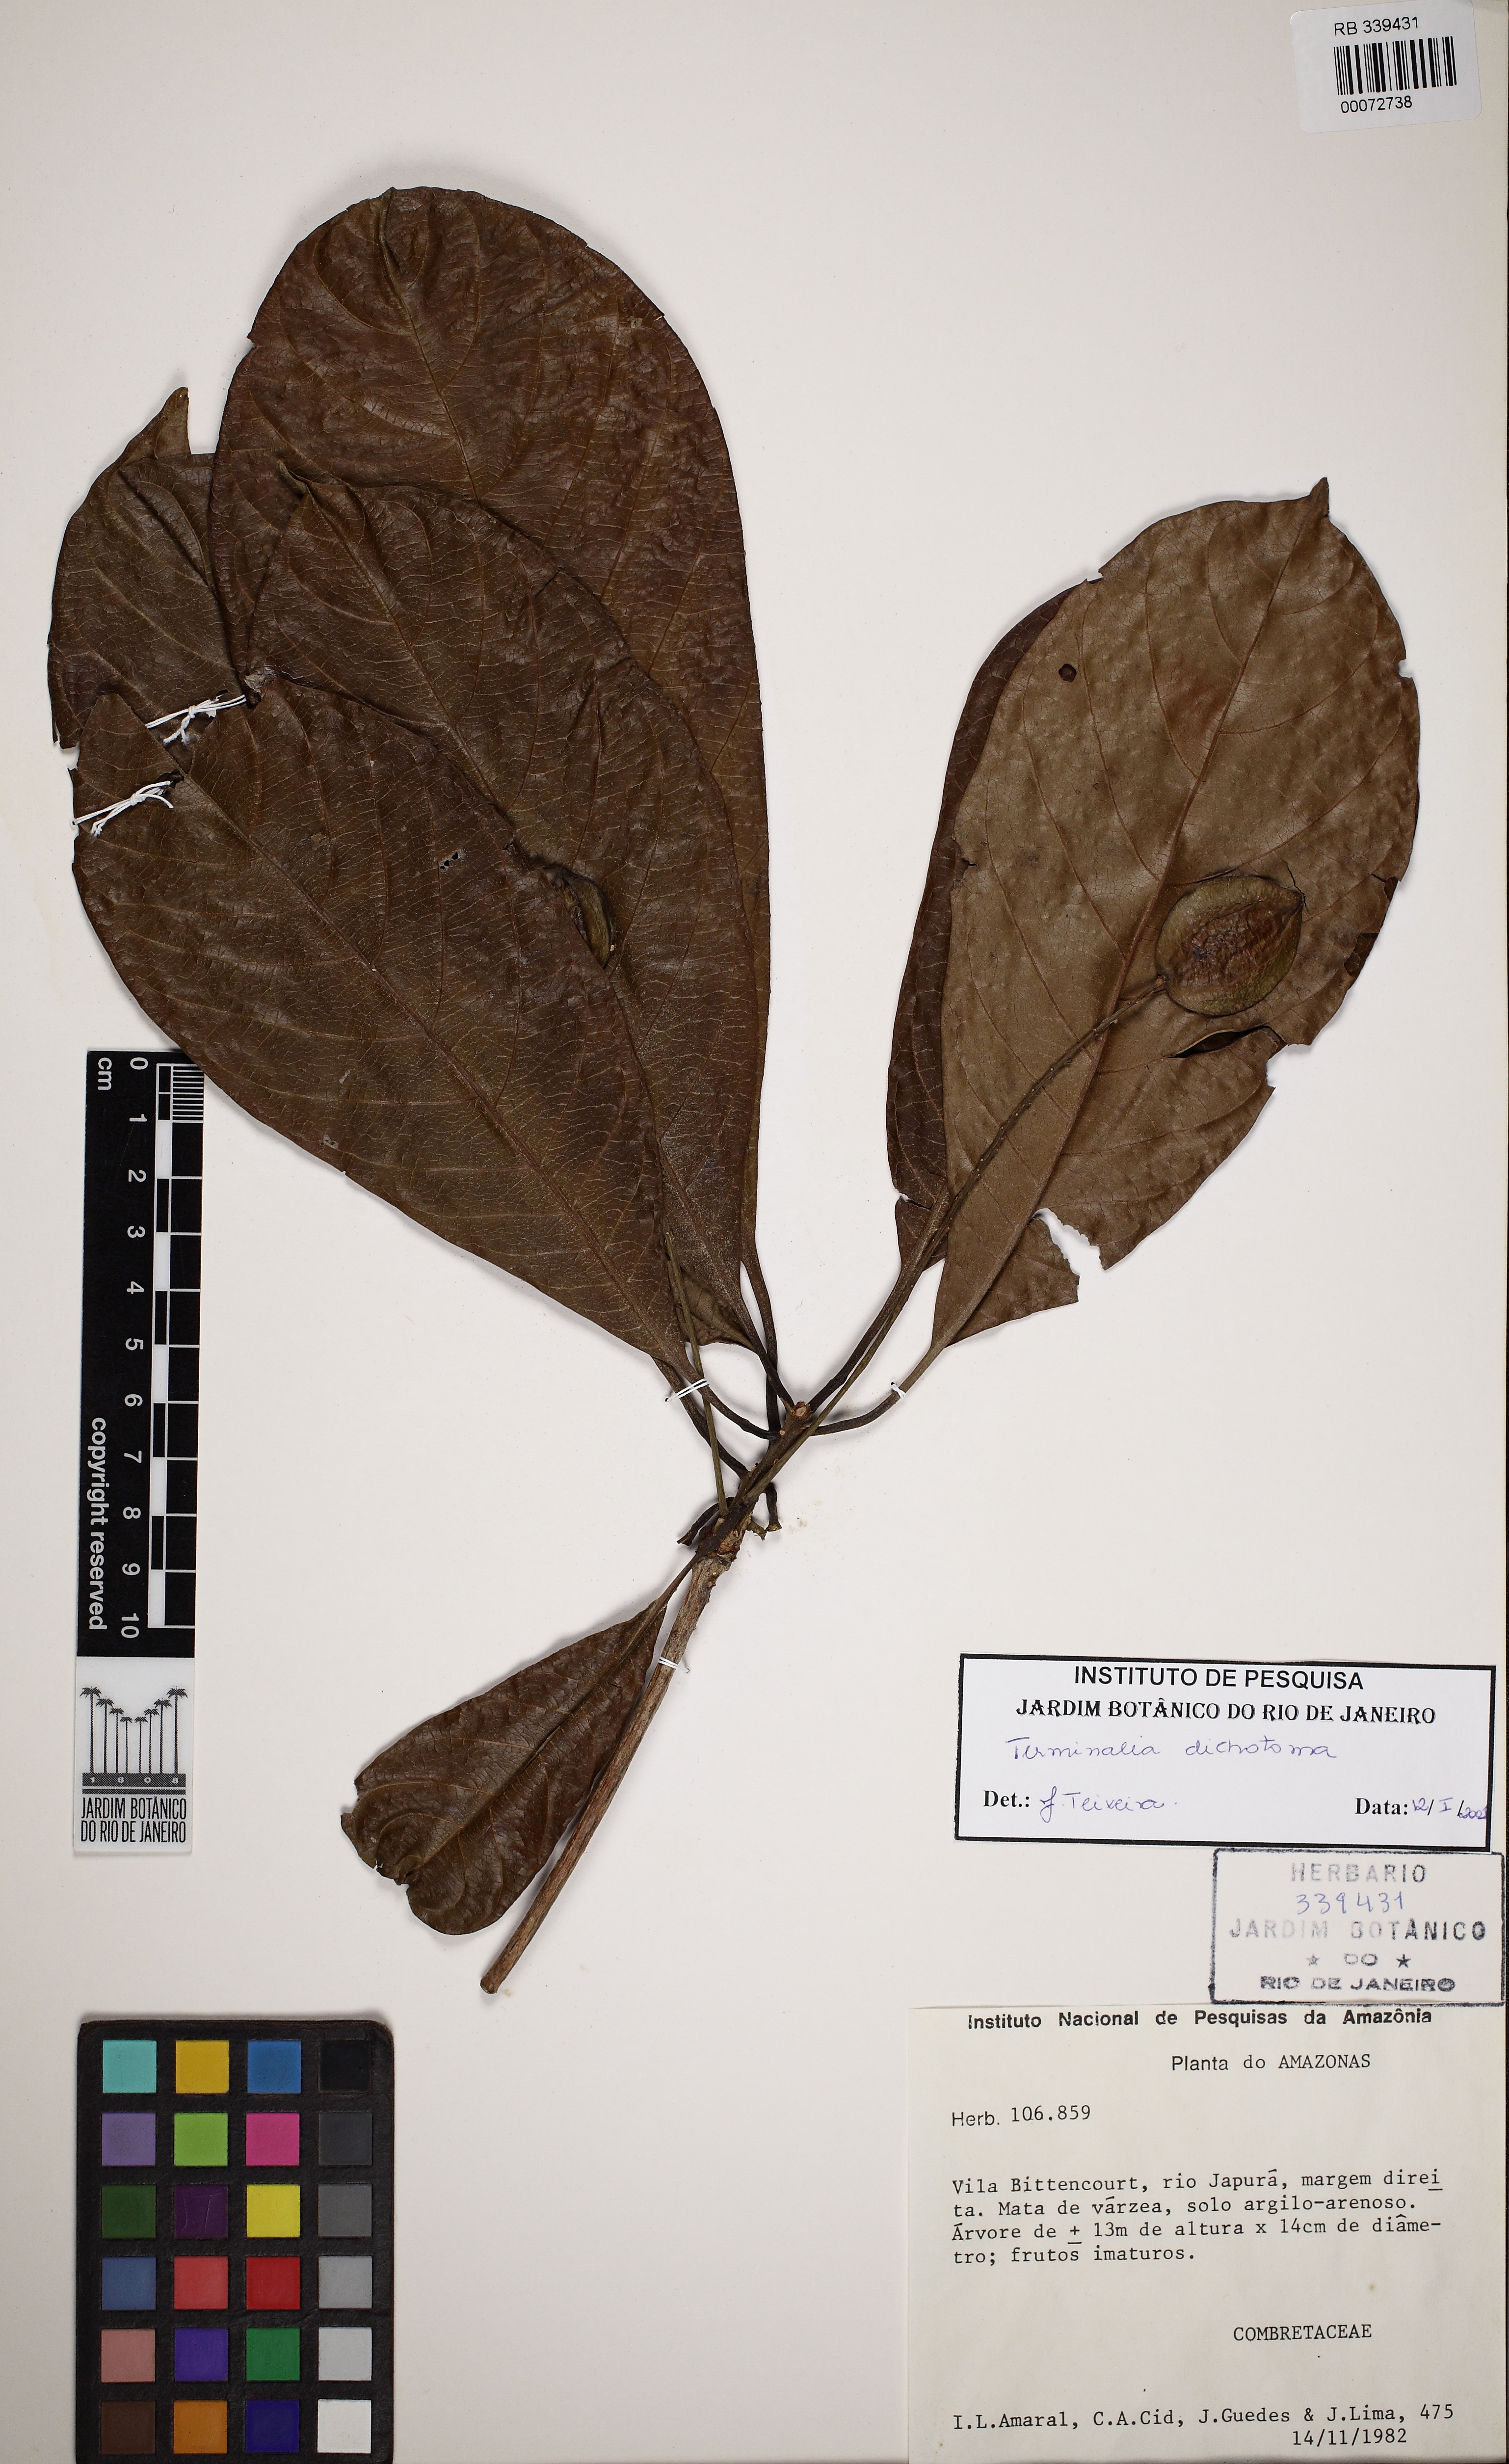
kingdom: Plantae
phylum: Tracheophyta
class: Magnoliopsida
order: Myrtales
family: Combretaceae
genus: Terminalia
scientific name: Terminalia dichotoma
